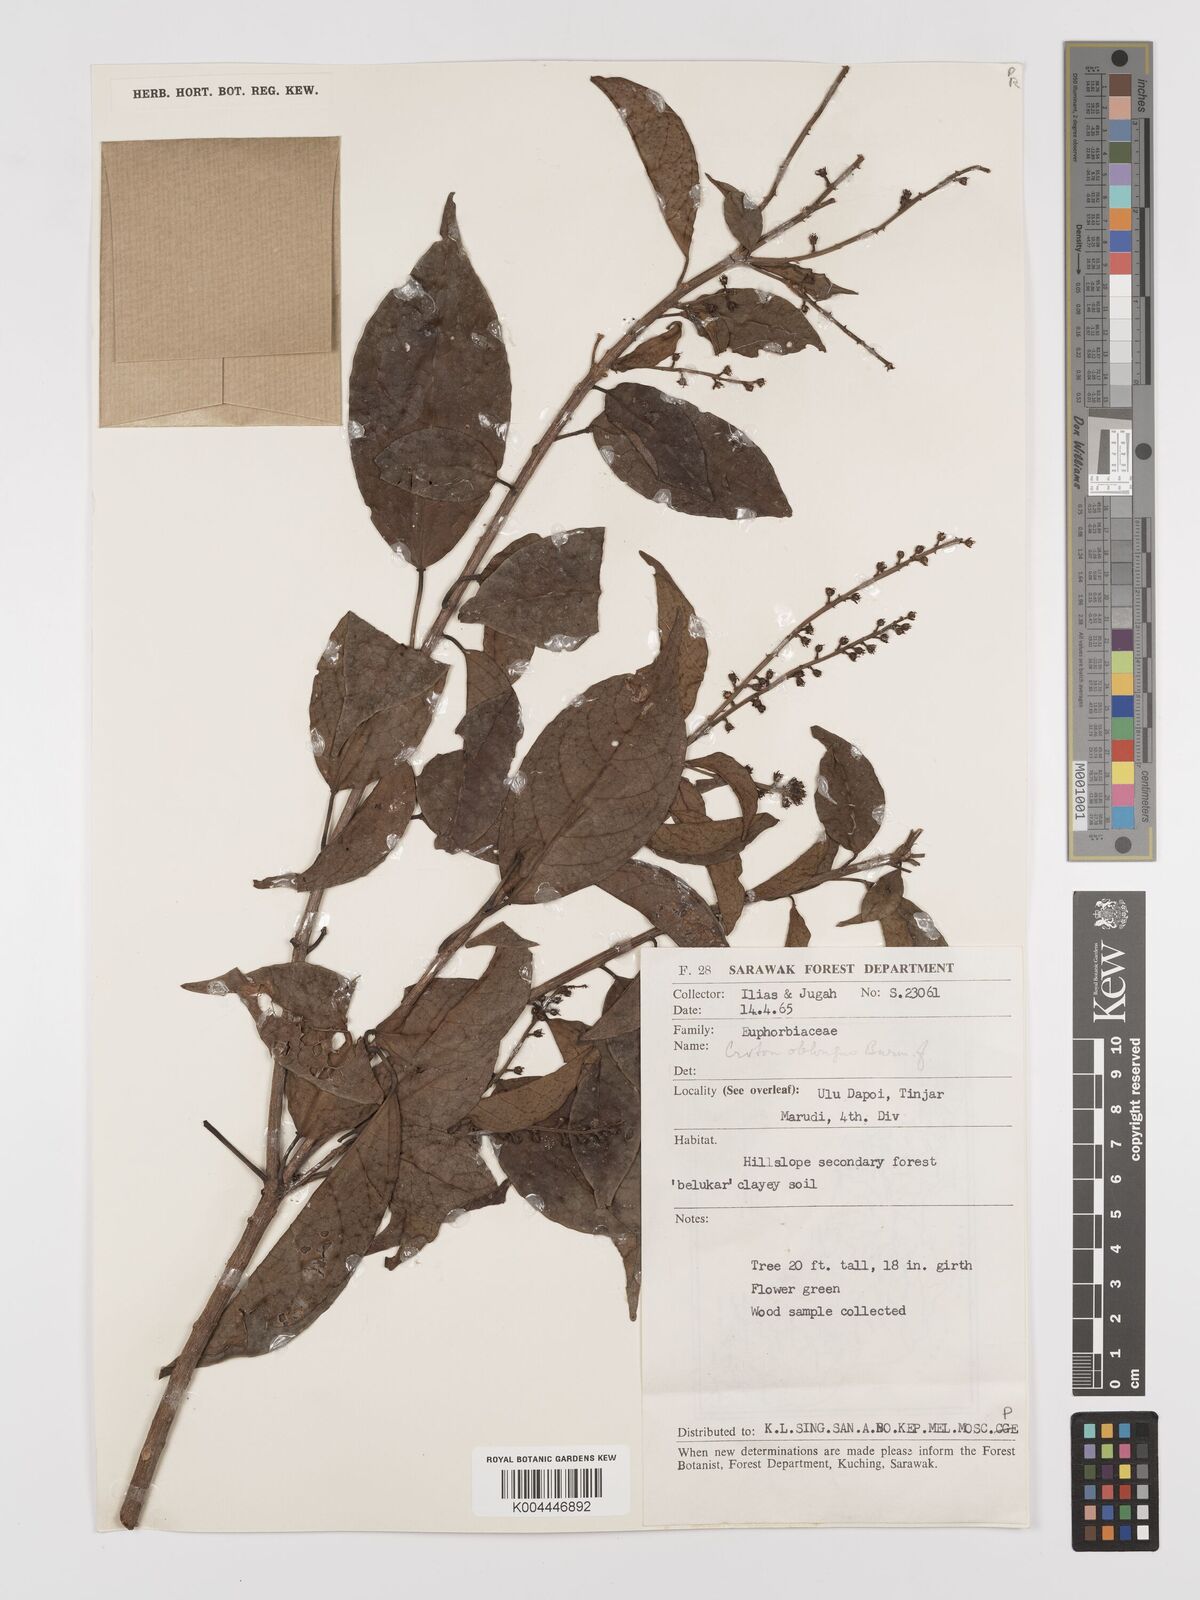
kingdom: Plantae
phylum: Tracheophyta
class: Magnoliopsida
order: Malpighiales
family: Euphorbiaceae
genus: Croton
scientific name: Croton oblongus
